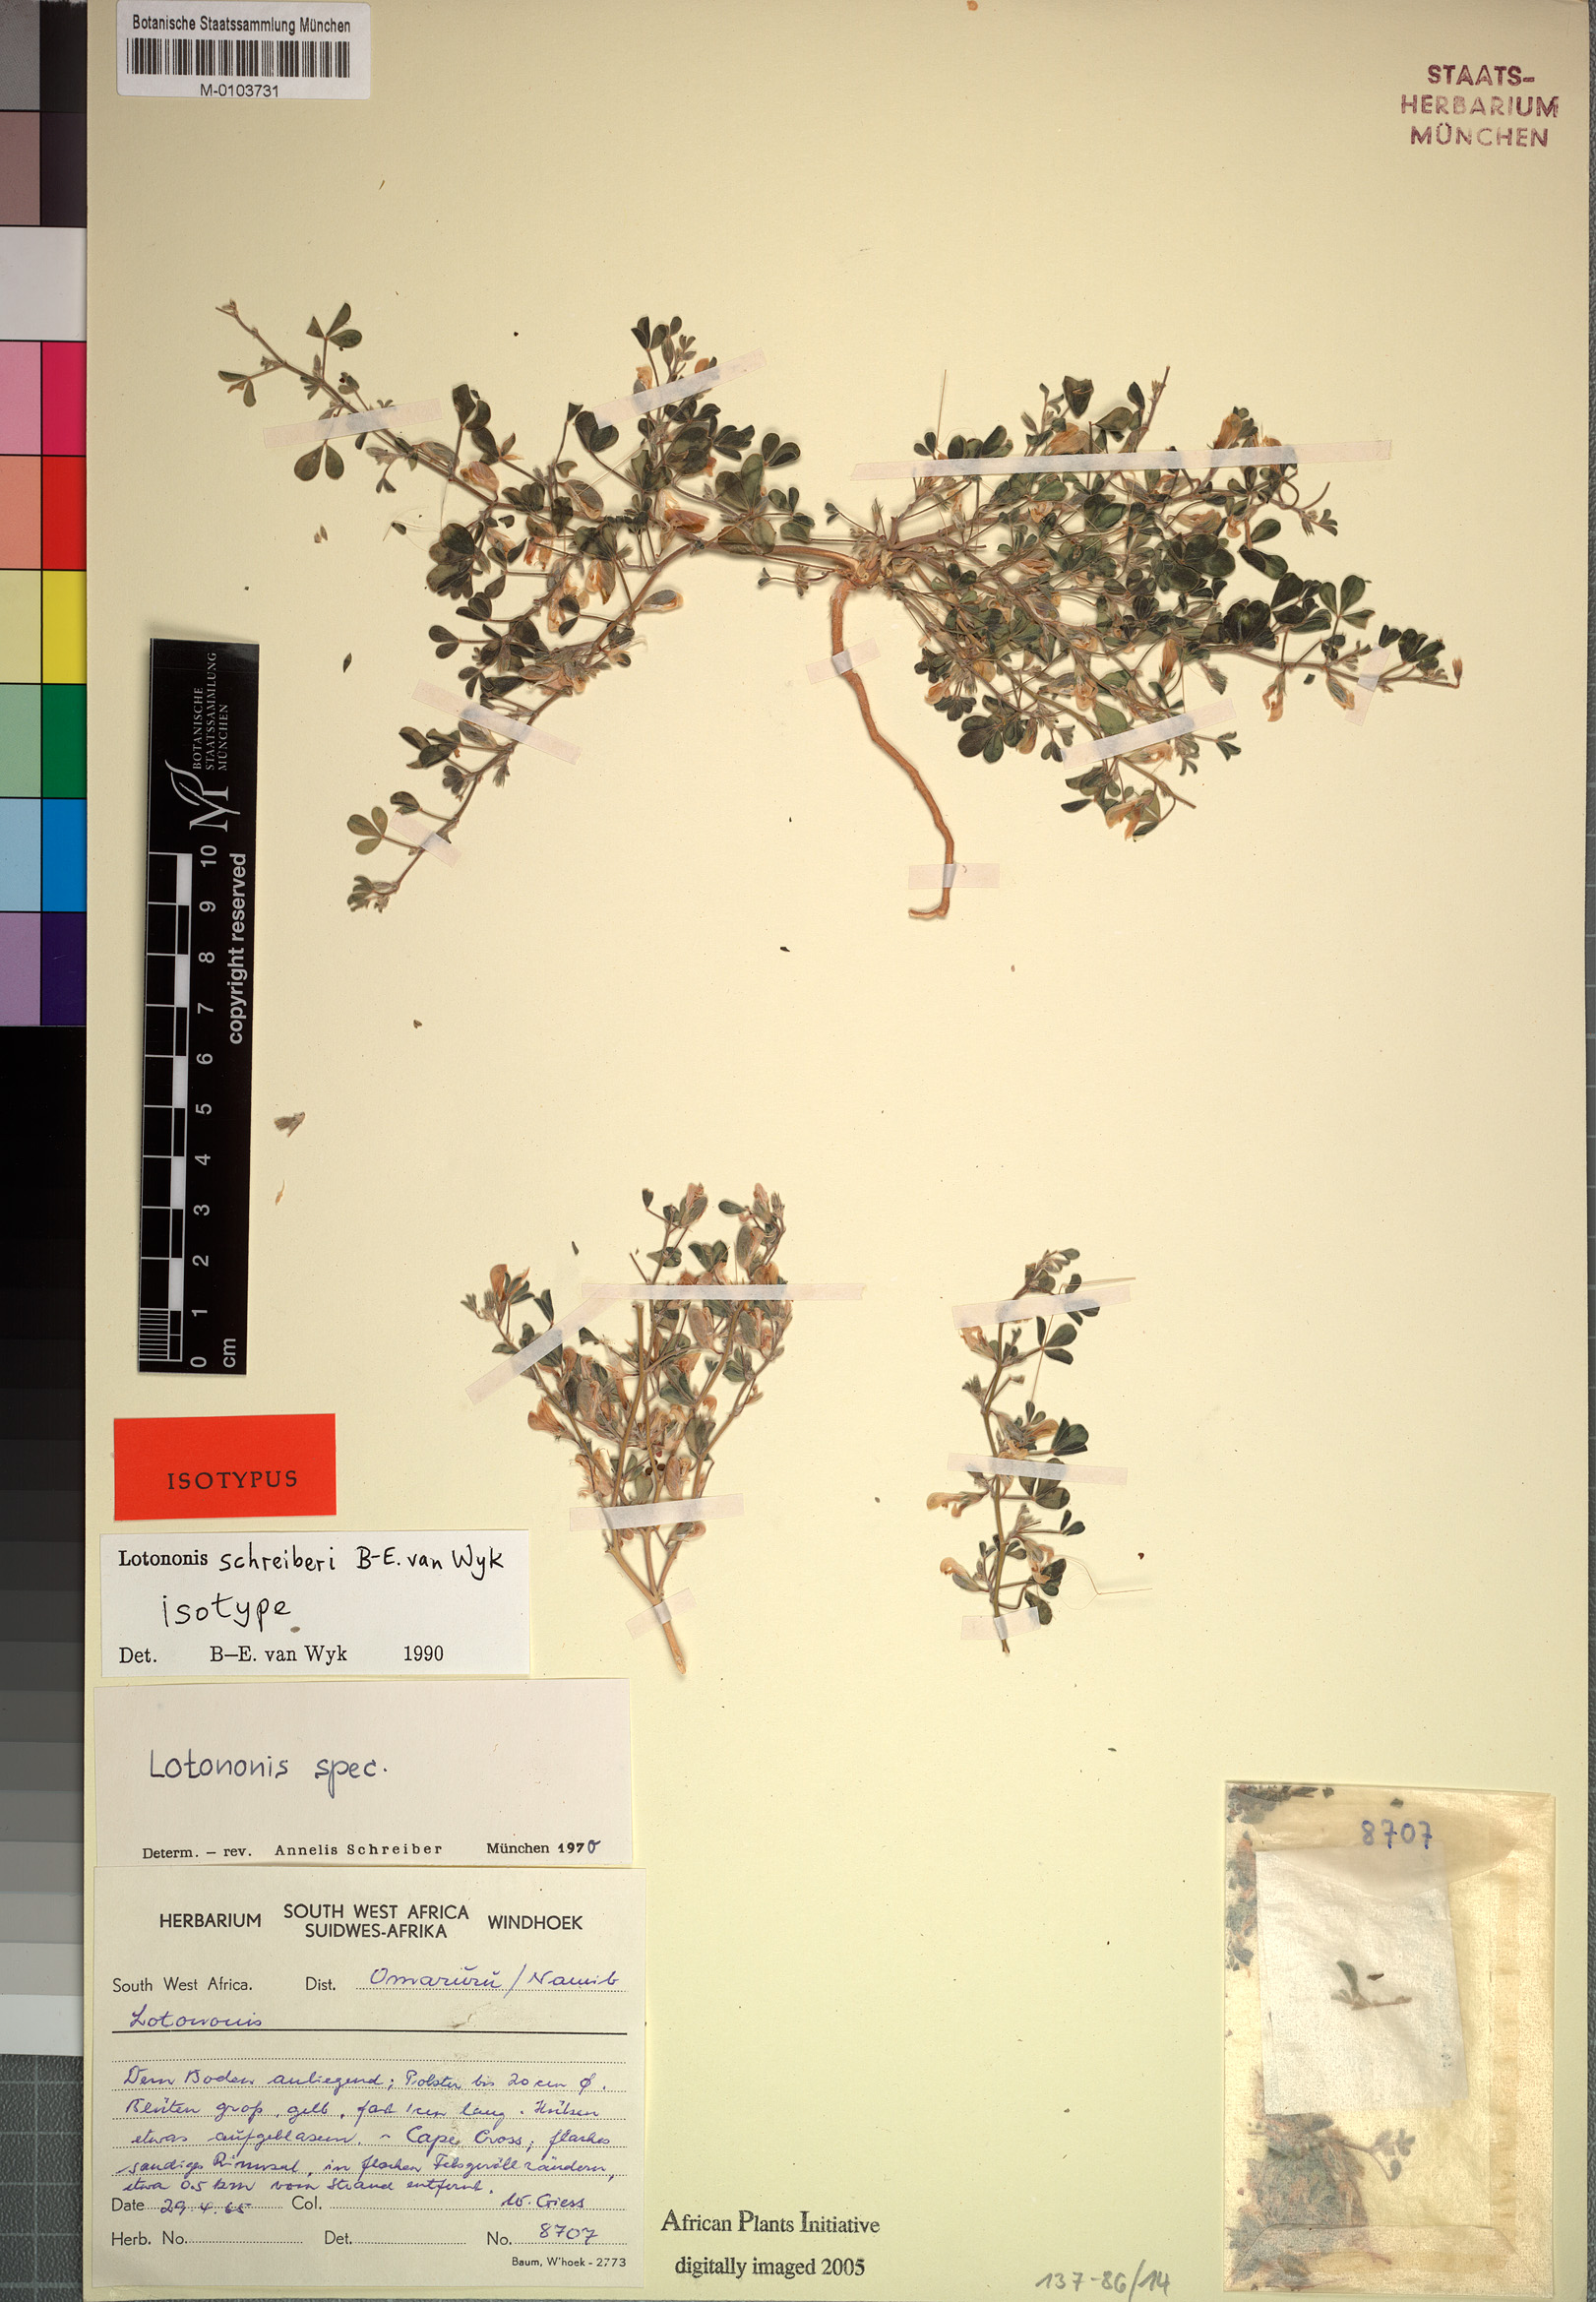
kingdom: Plantae
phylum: Tracheophyta
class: Magnoliopsida
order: Fabales
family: Fabaceae
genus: Lotononis
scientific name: Lotononis schreiberae
